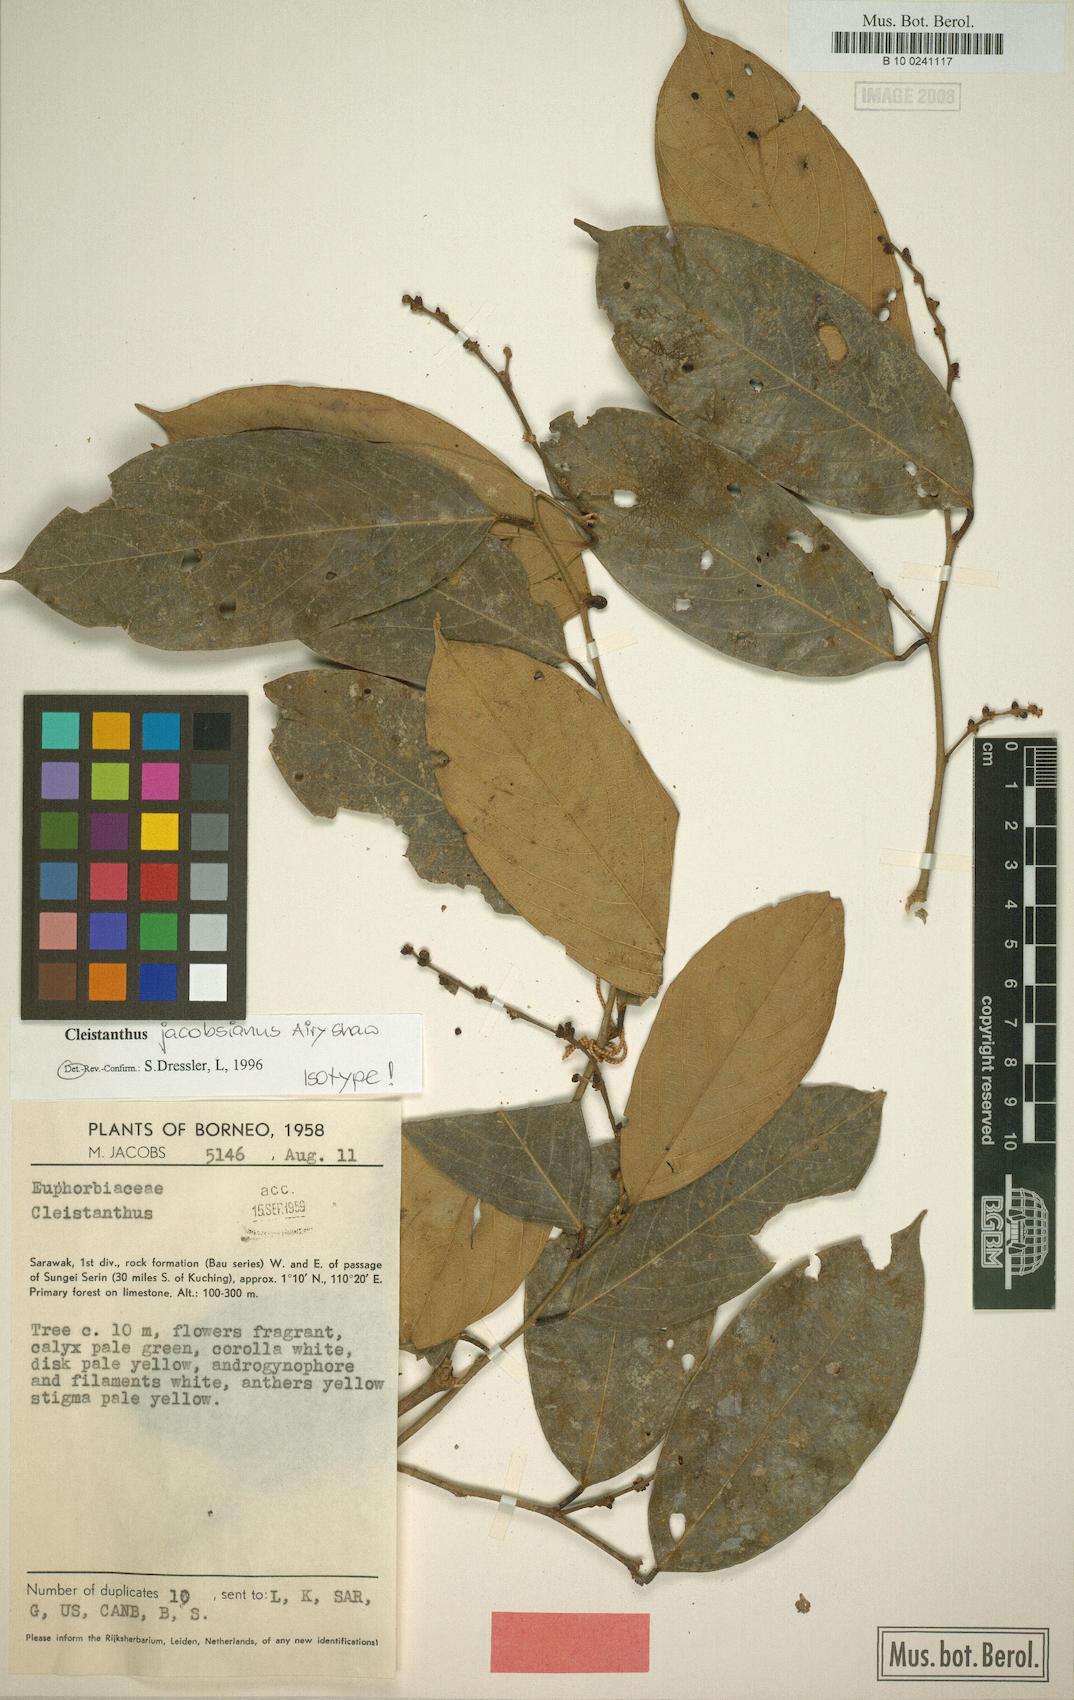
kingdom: Plantae
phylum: Tracheophyta
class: Magnoliopsida
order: Malpighiales
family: Phyllanthaceae
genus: Cleistanthus
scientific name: Cleistanthus jacobsianus
